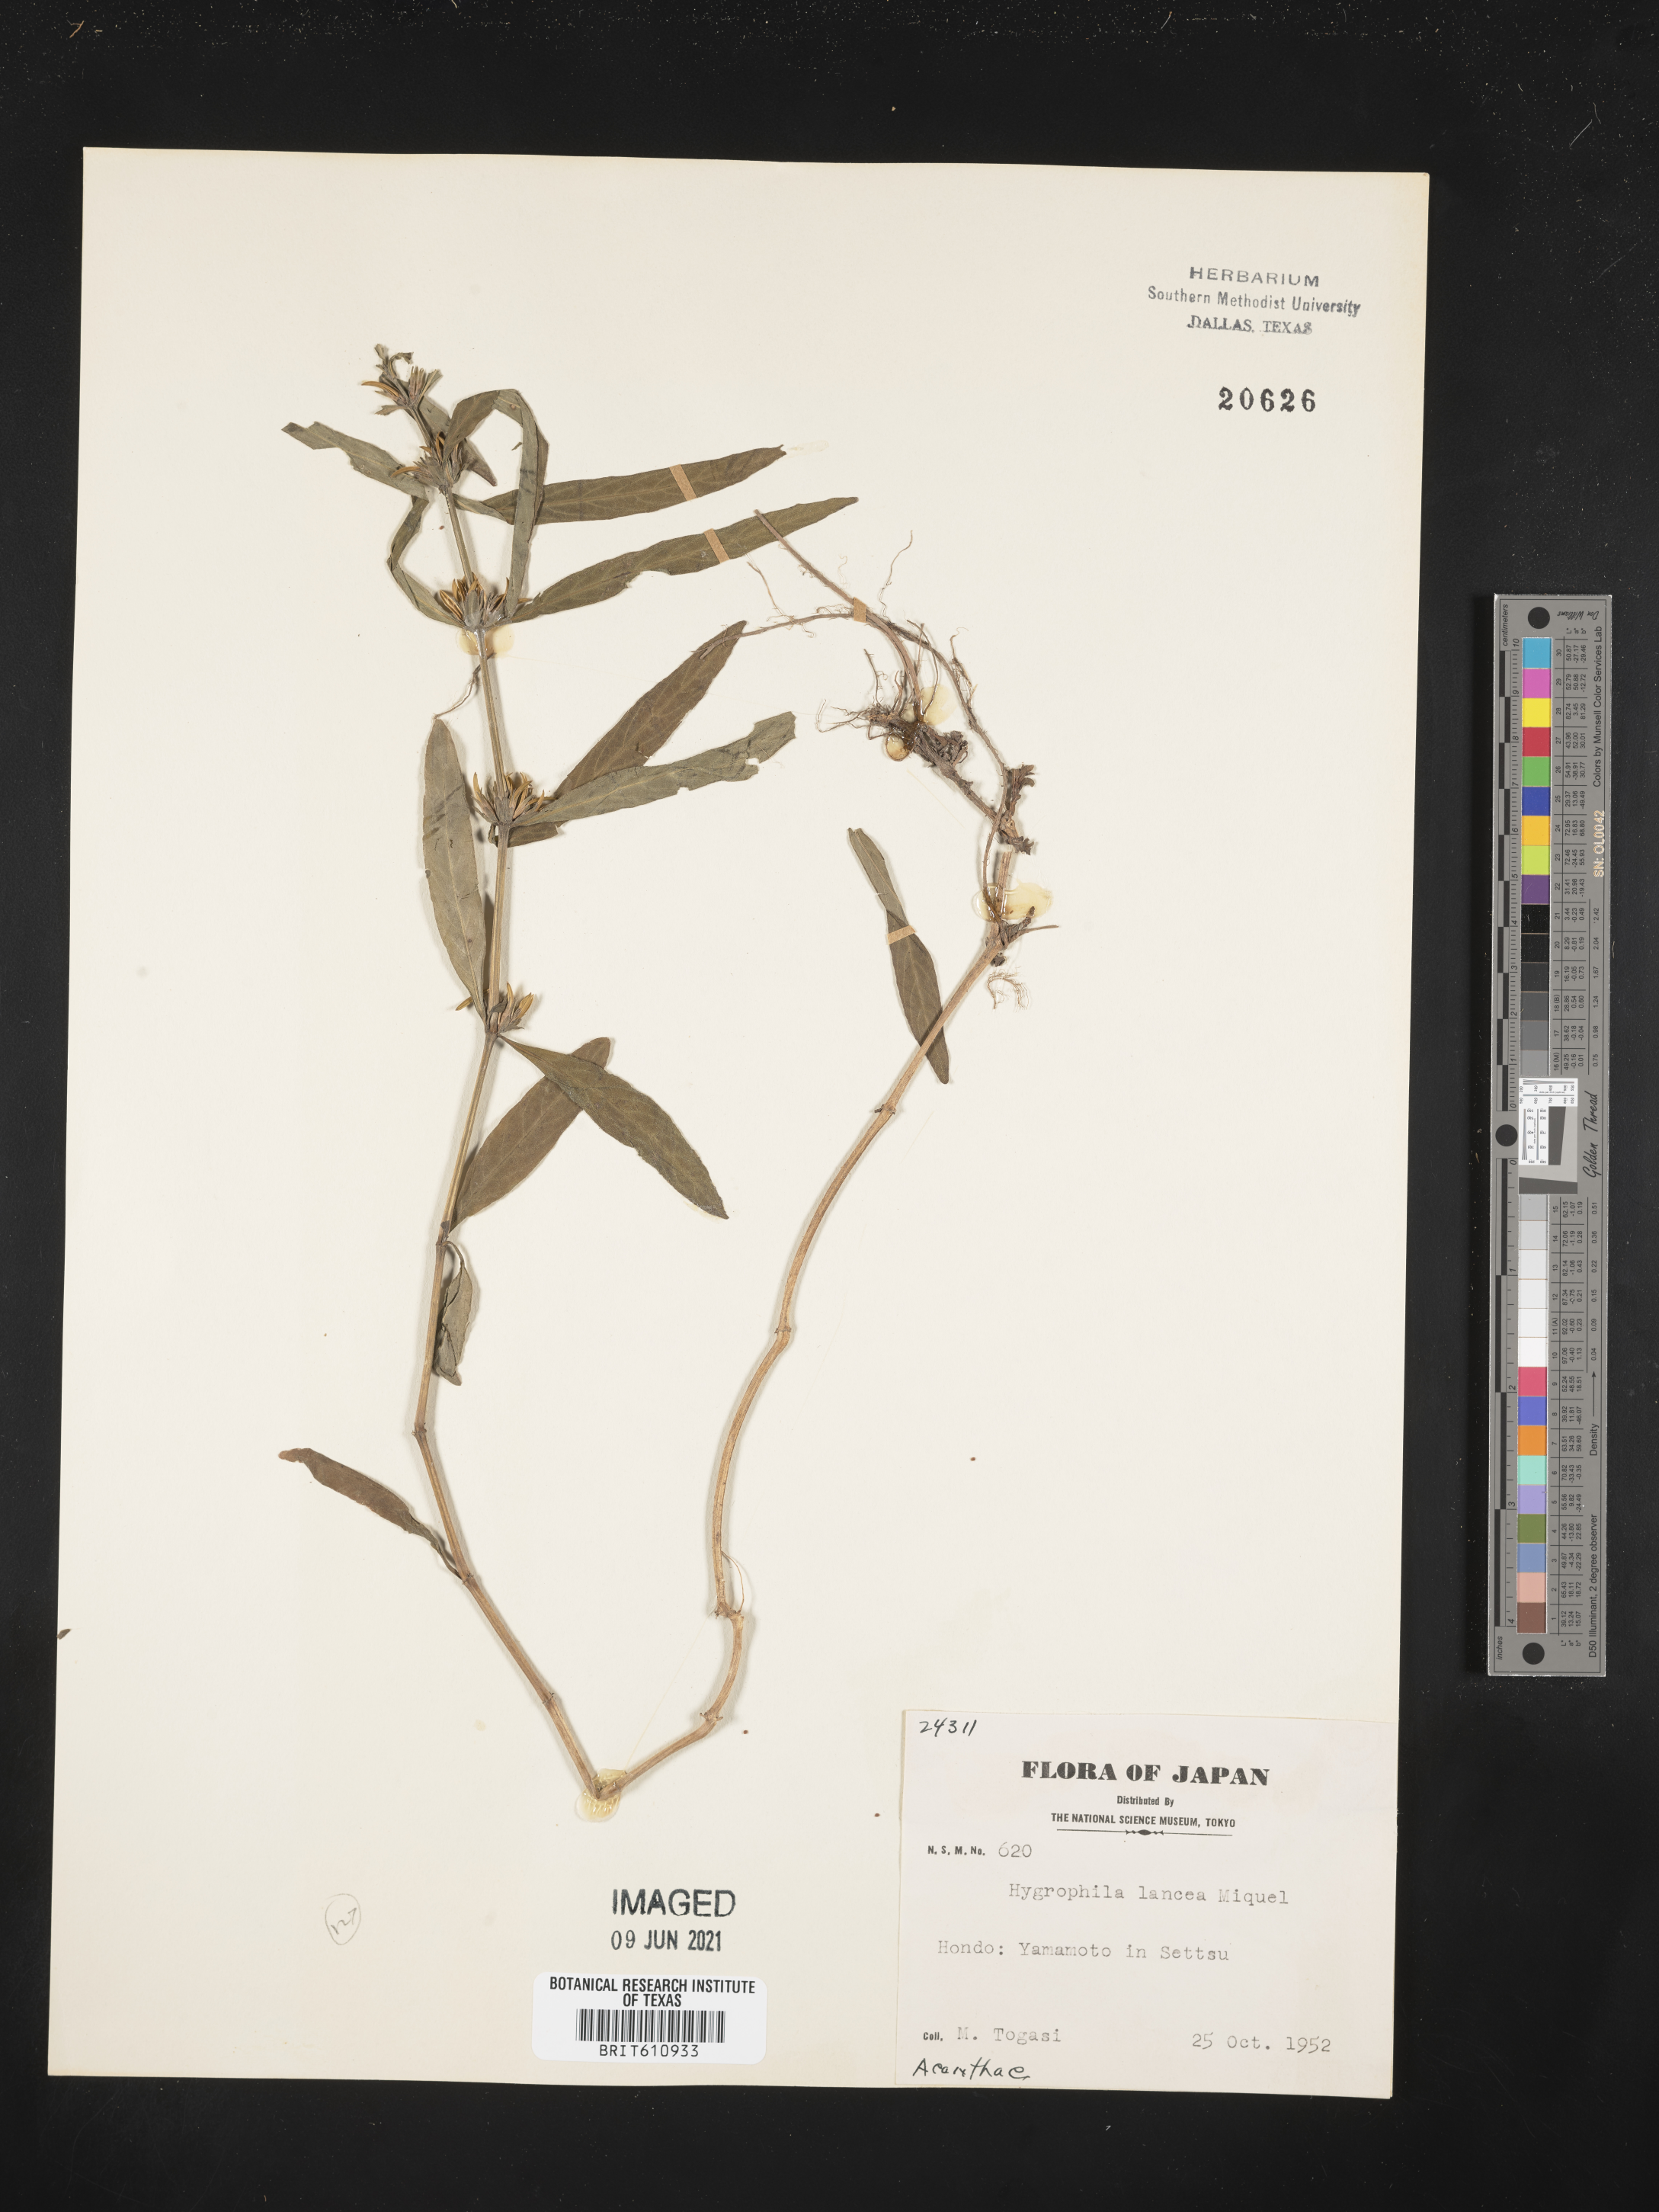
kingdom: Plantae
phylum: Tracheophyta
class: Magnoliopsida
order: Lamiales
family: Acanthaceae
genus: Hygrophila
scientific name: Hygrophila ringens
